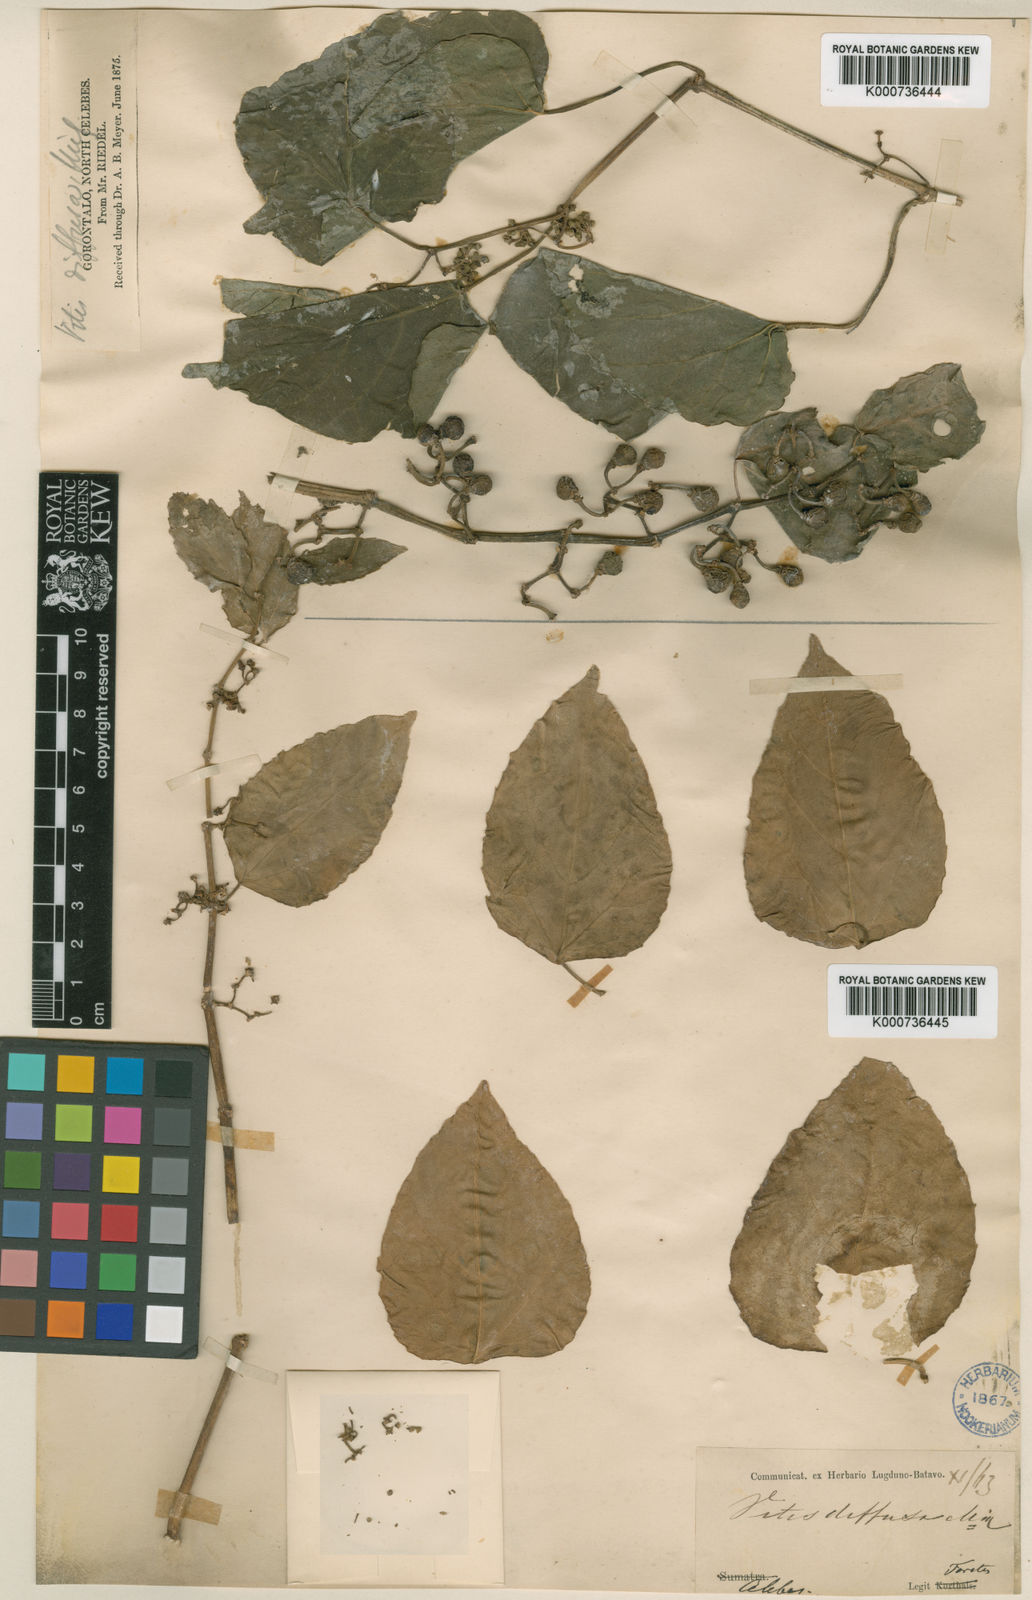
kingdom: Plantae
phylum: Tracheophyta
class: Magnoliopsida
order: Vitales
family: Vitaceae
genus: Cissus
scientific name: Cissus repens
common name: Cissus
